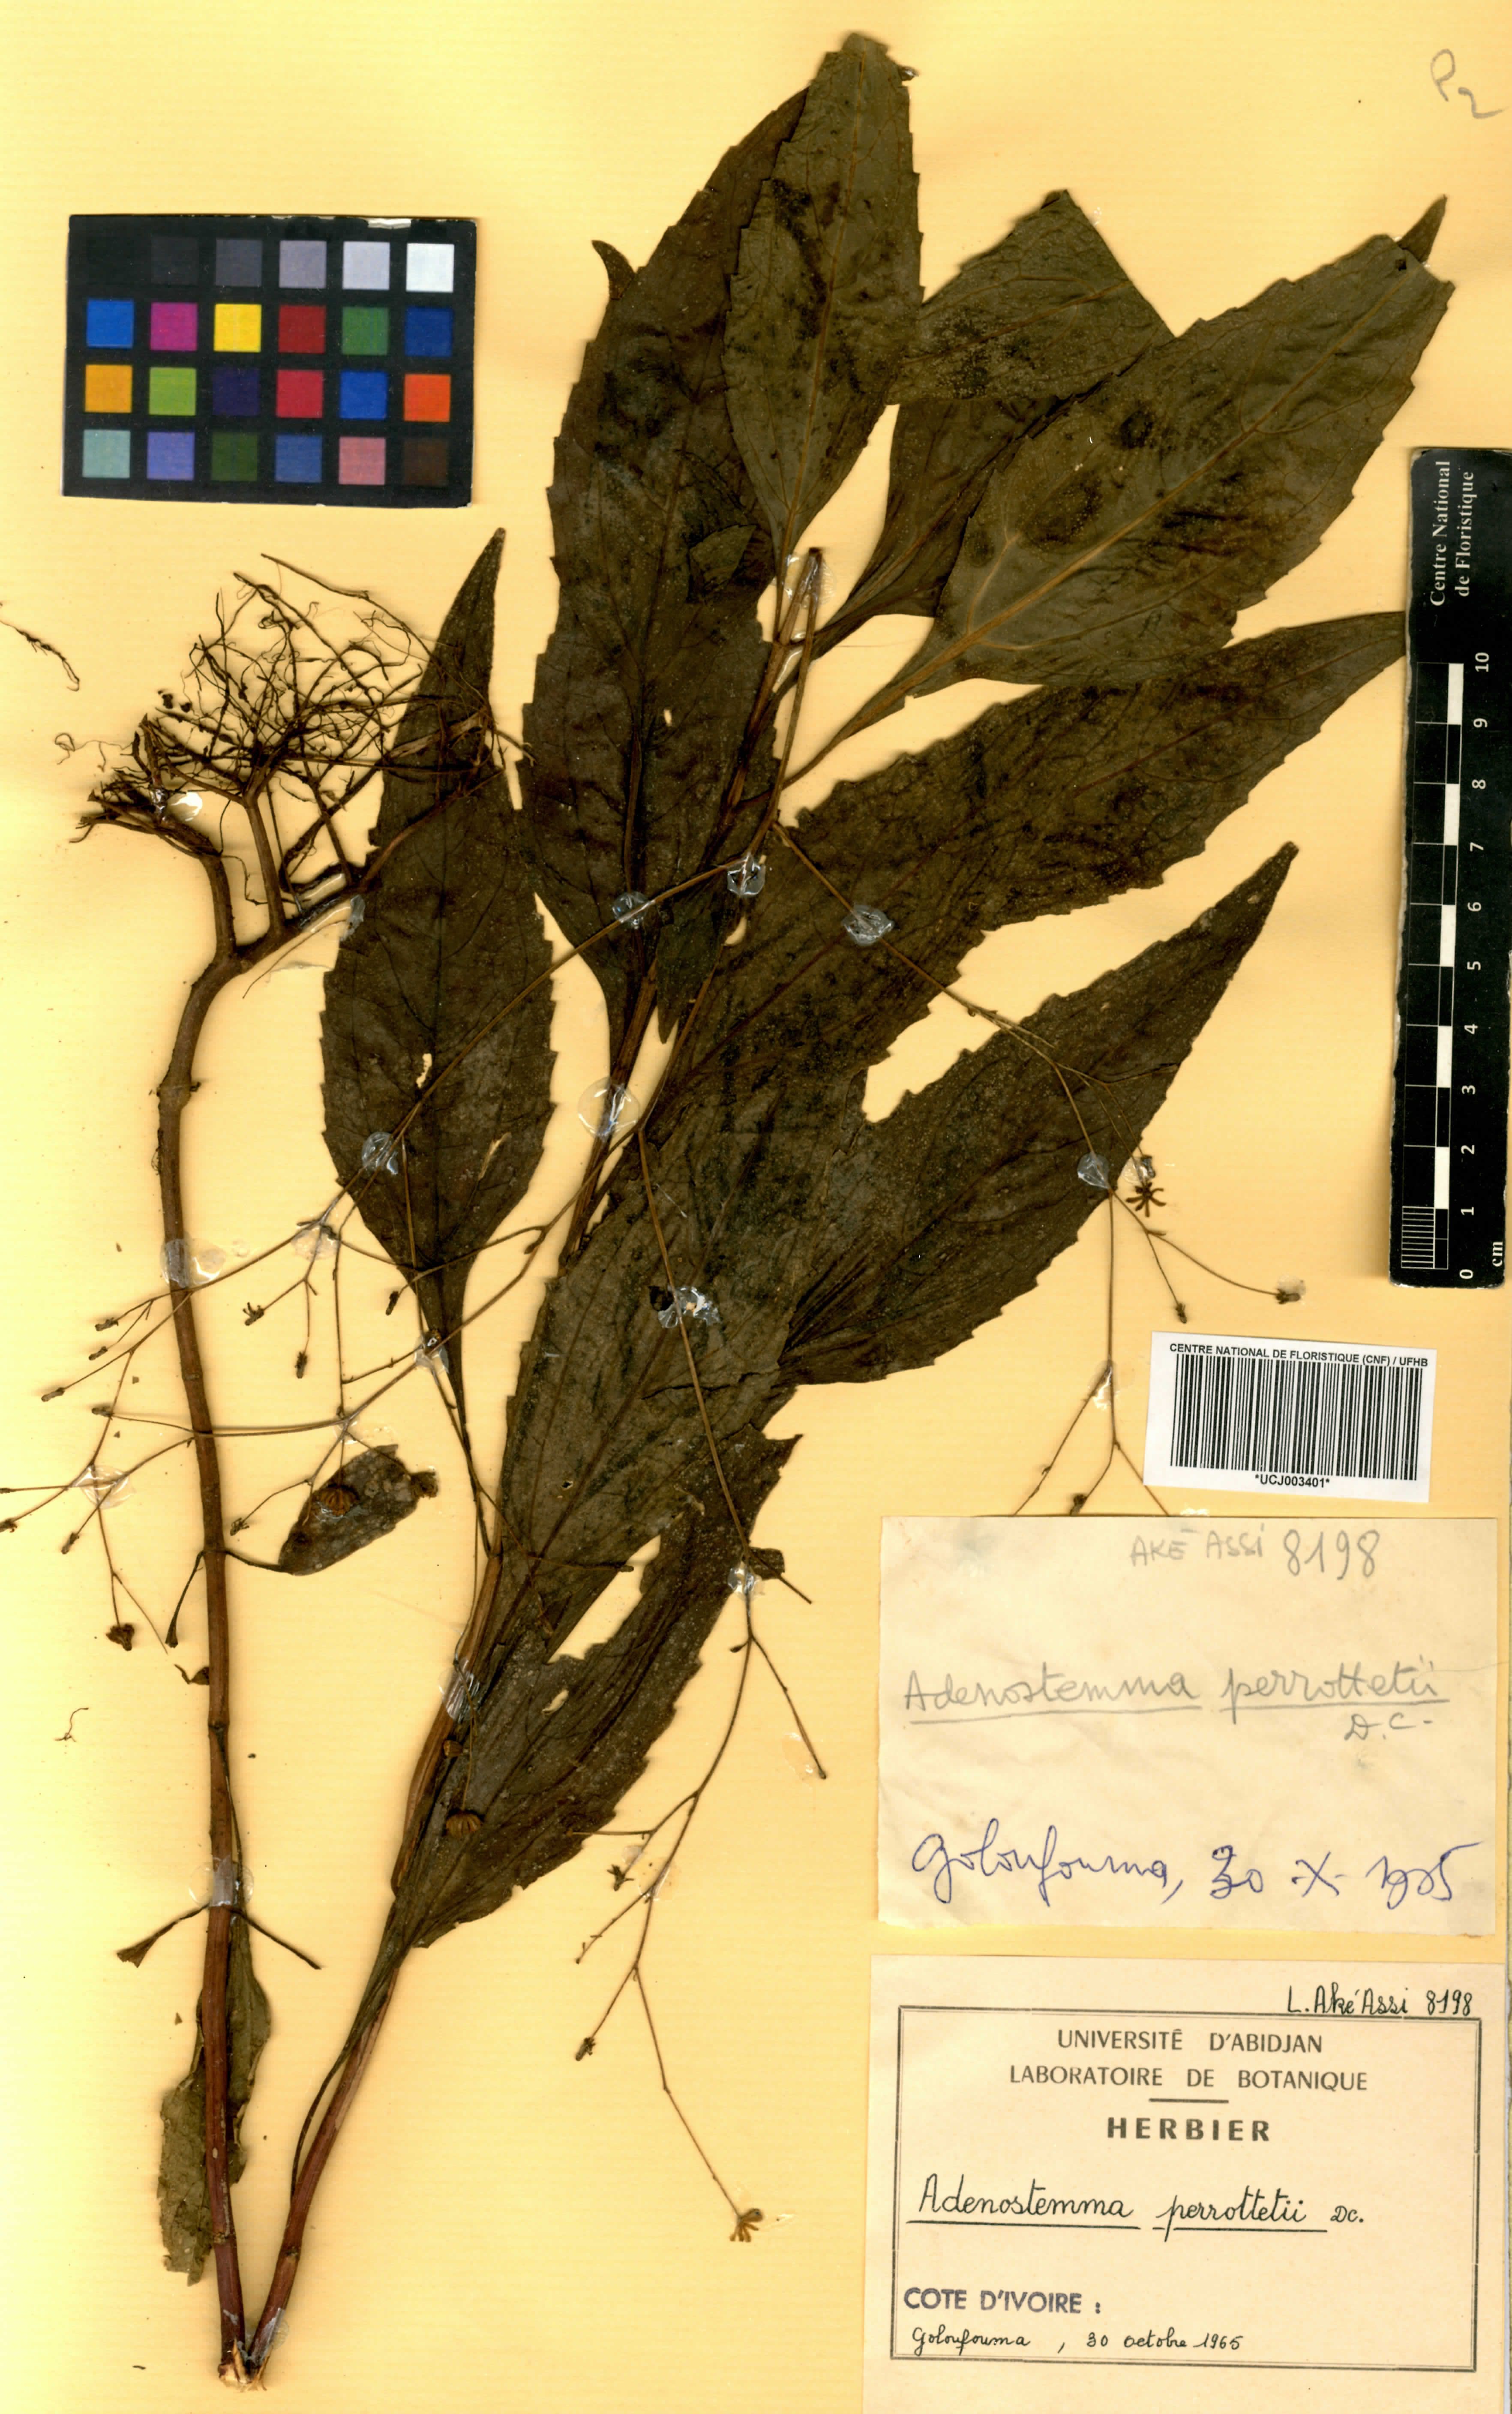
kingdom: Plantae
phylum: Tracheophyta
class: Magnoliopsida
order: Asterales
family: Asteraceae
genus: Adenostemma
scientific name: Adenostemma viscosum
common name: Dungweed
